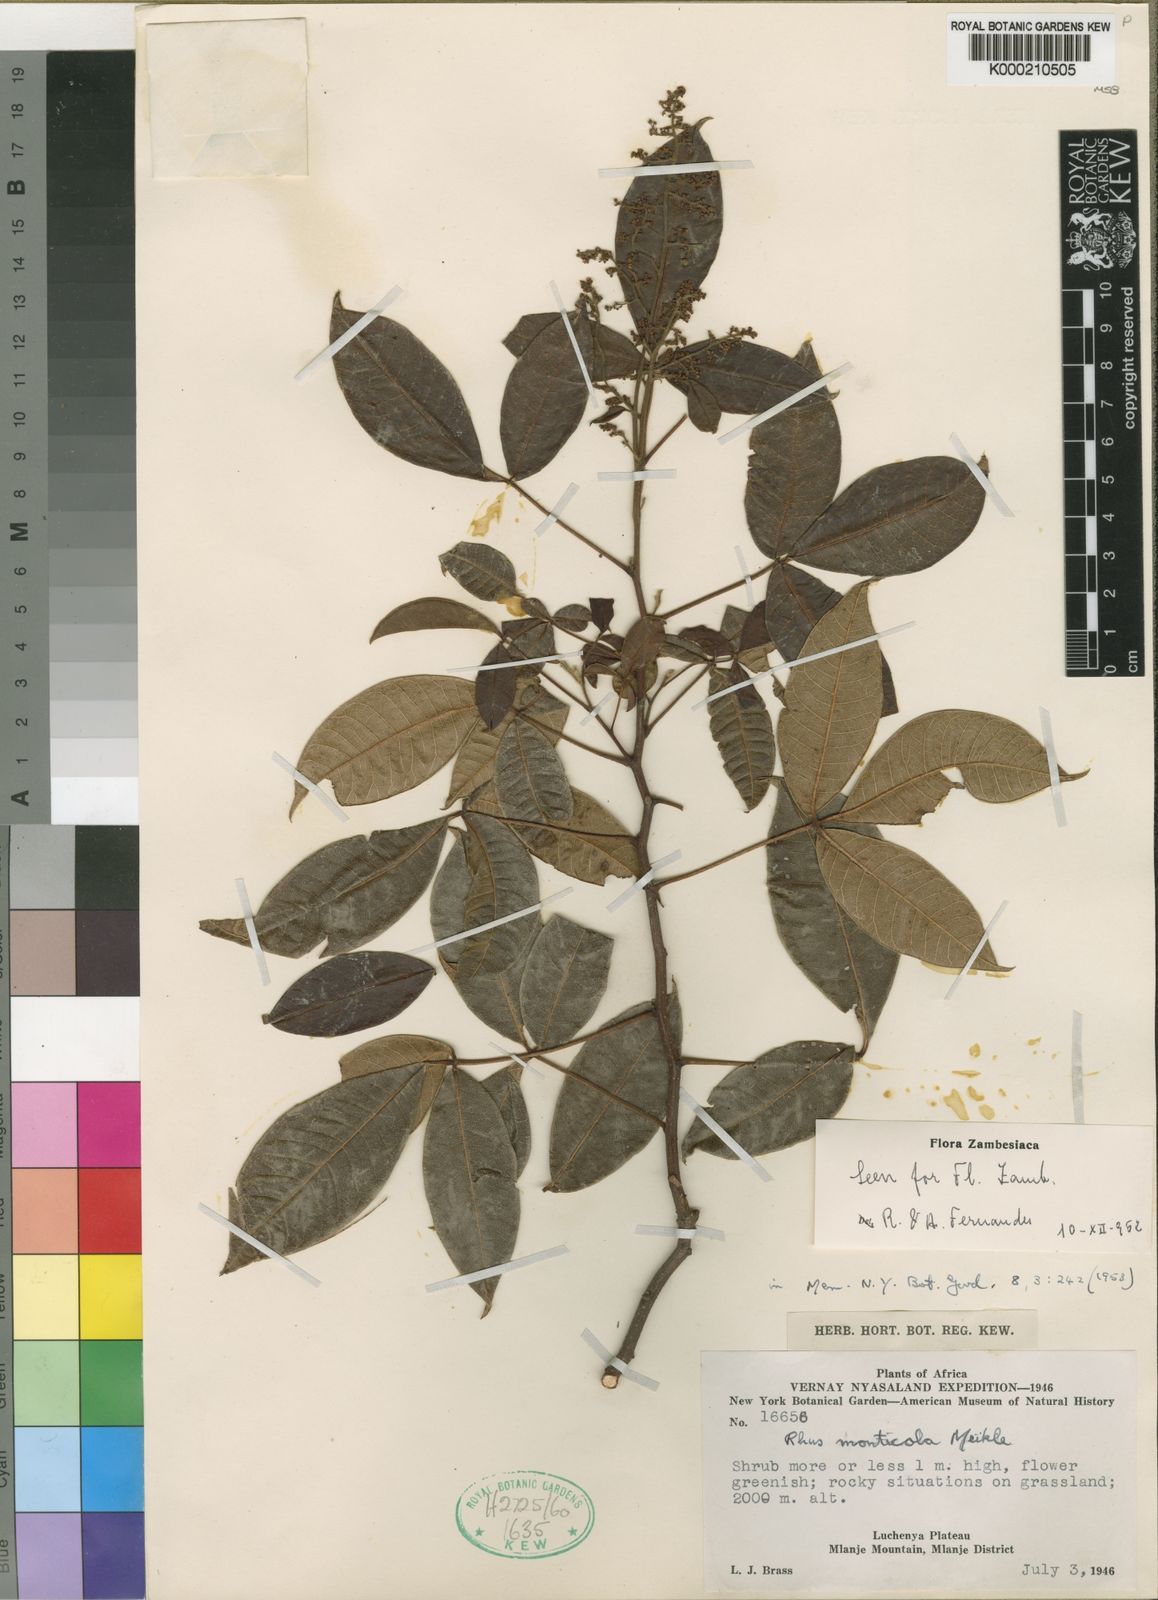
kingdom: Plantae
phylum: Tracheophyta
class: Magnoliopsida
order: Sapindales
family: Anacardiaceae
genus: Searsia
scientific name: Searsia monticola
